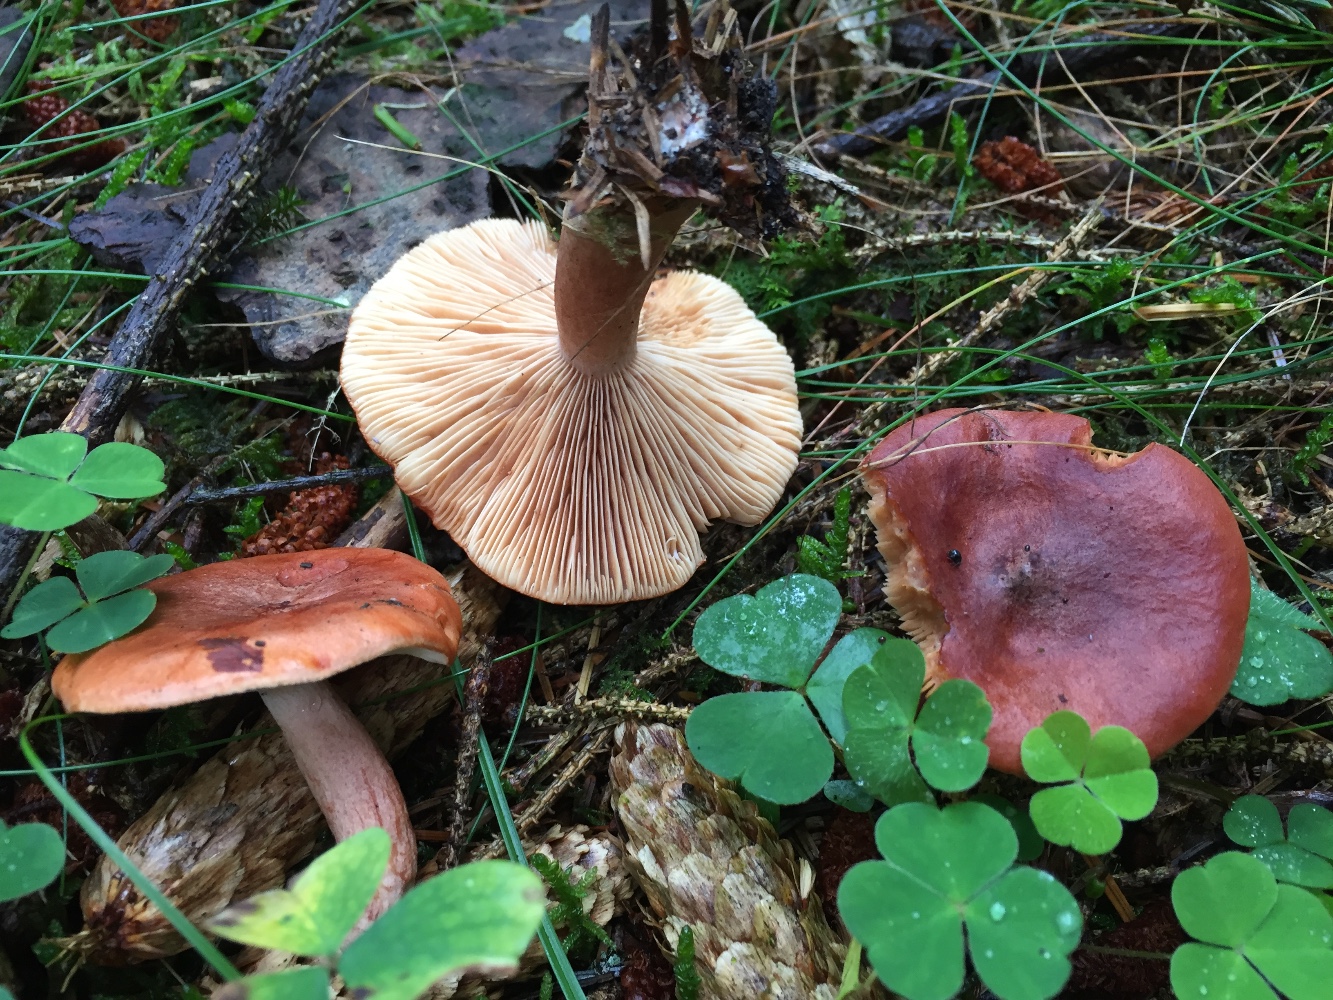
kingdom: Fungi
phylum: Basidiomycota
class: Agaricomycetes
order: Russulales
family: Russulaceae
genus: Lactarius
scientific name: Lactarius rufus
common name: rødbrun mælkehat
